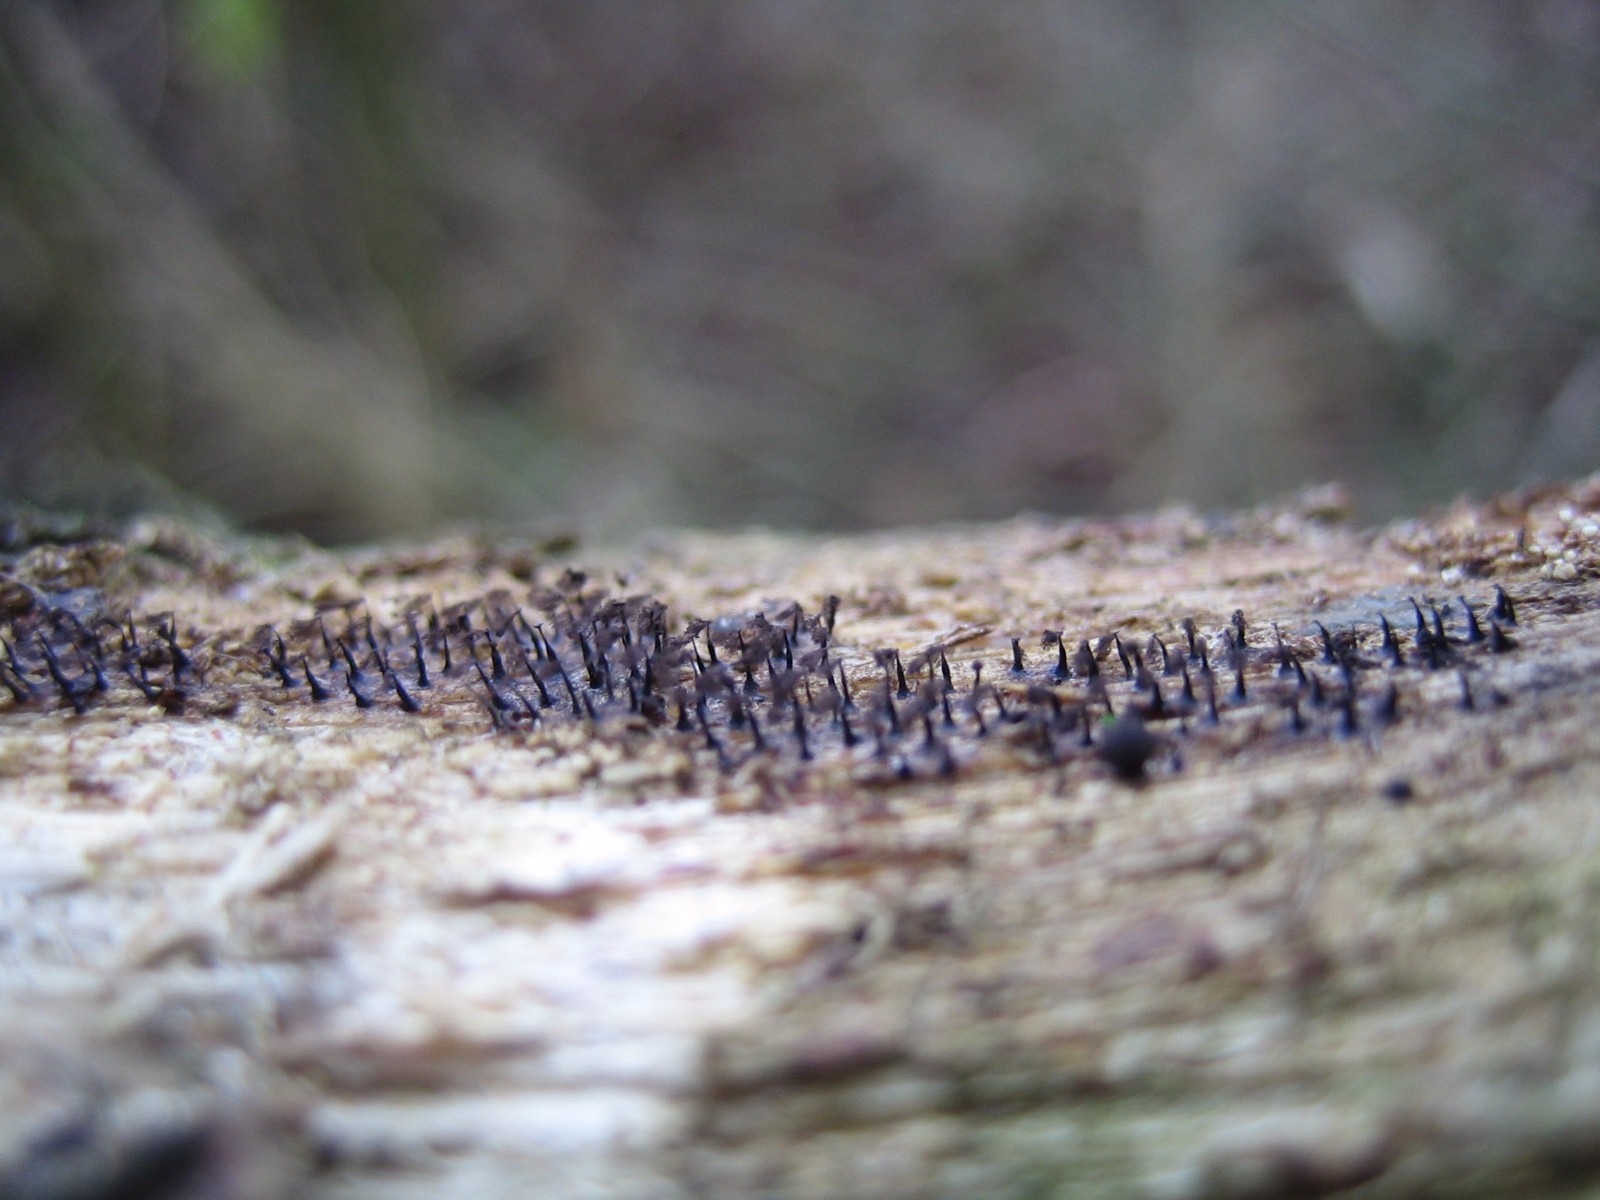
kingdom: Protozoa
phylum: Mycetozoa
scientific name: Mycetozoa
